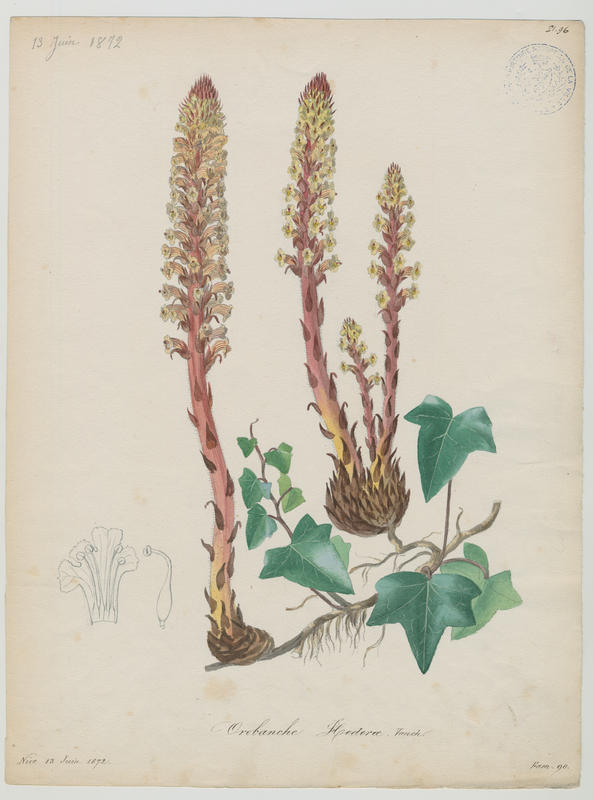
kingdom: Plantae
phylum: Tracheophyta
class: Magnoliopsida
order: Lamiales
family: Orobanchaceae
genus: Orobanche
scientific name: Orobanche hederae
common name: Ivy broomrape
